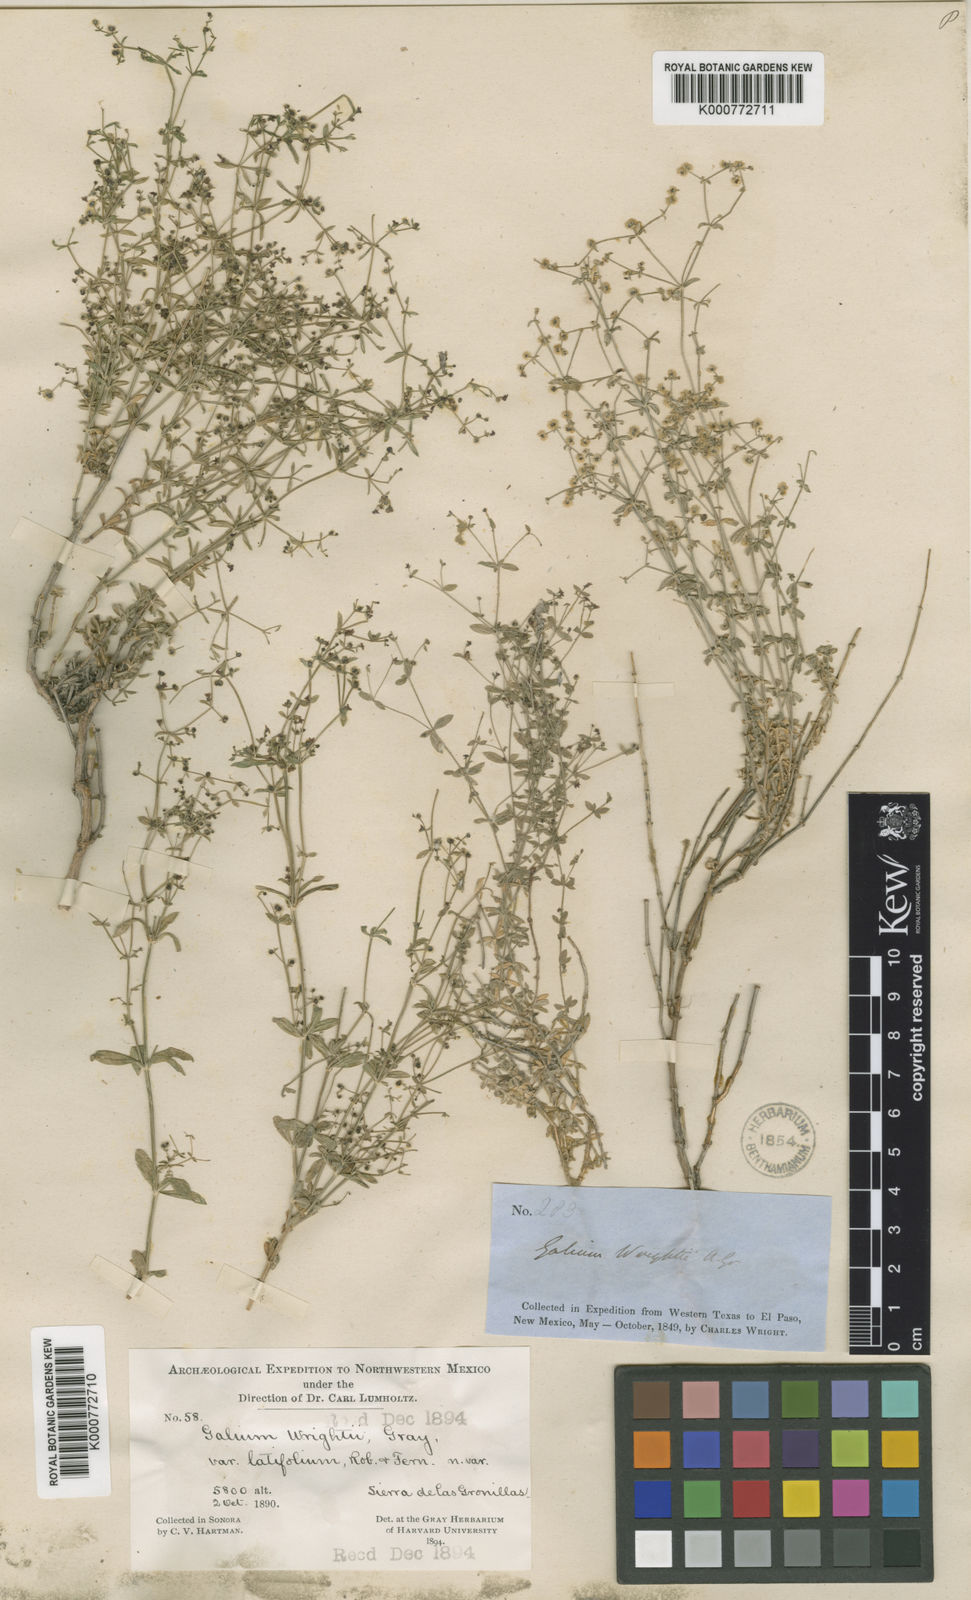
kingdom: Plantae
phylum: Tracheophyta
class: Magnoliopsida
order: Gentianales
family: Rubiaceae
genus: Galium
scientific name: Galium wrightii
